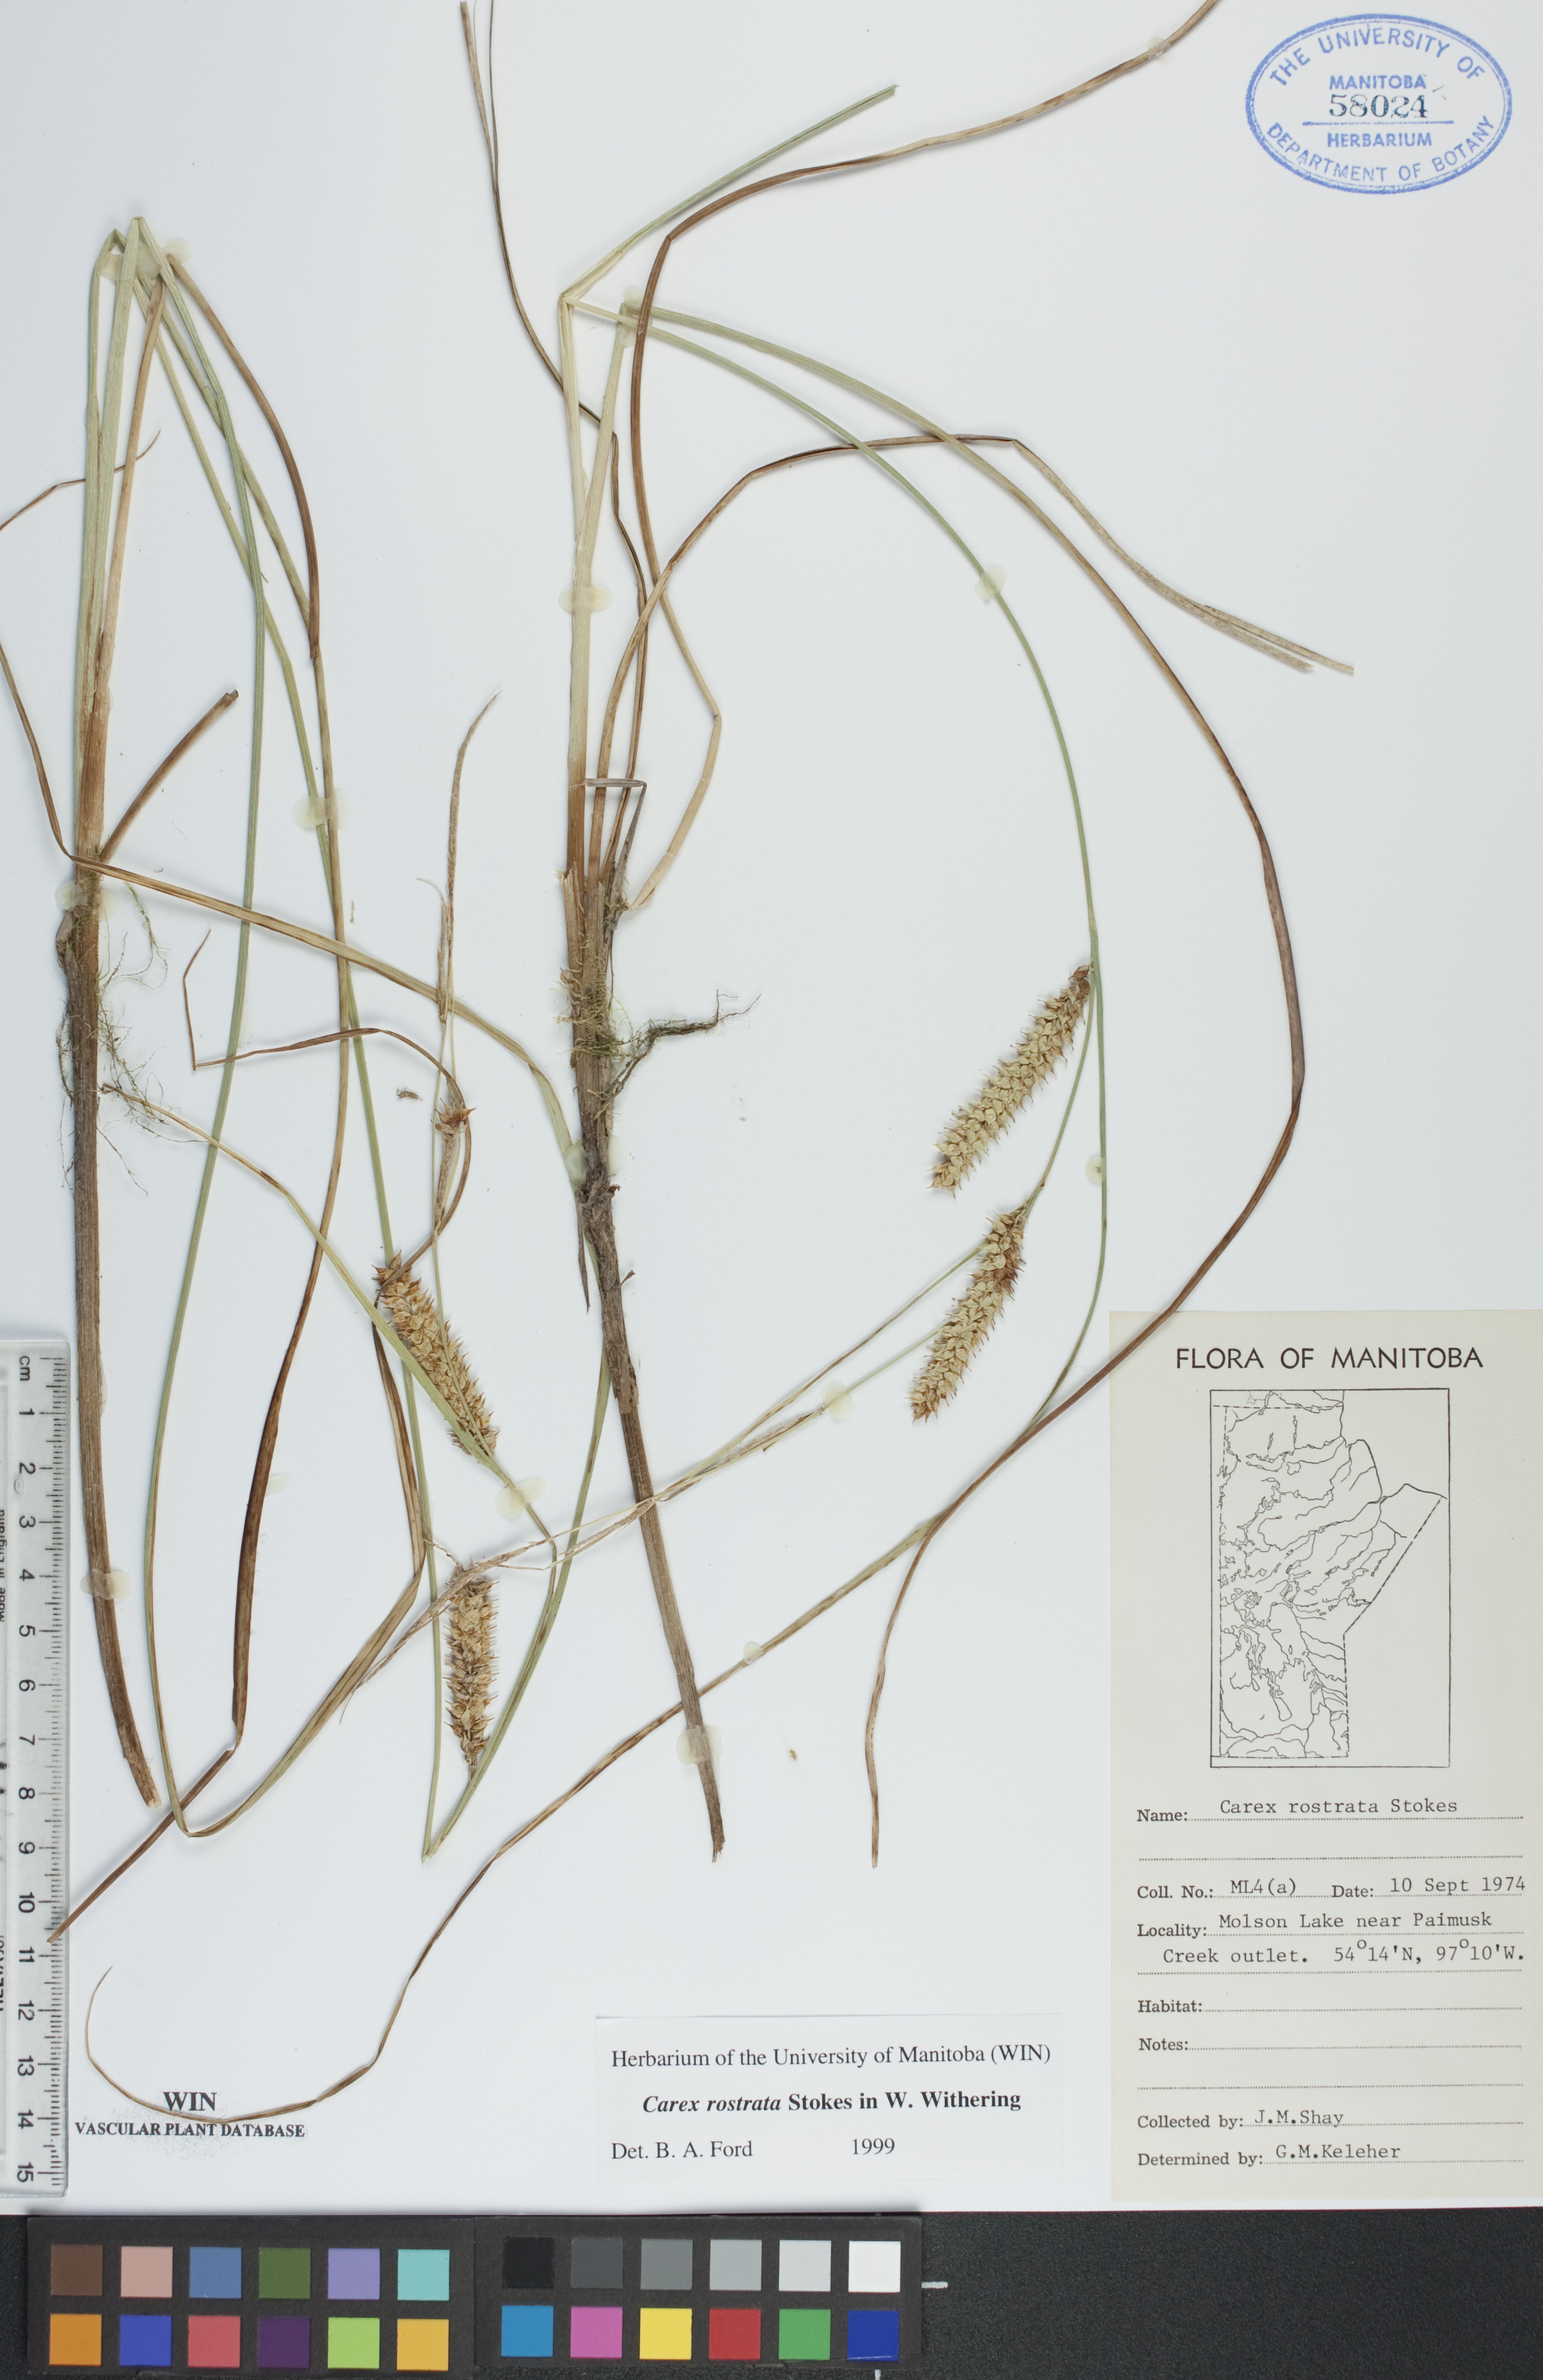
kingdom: Plantae
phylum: Tracheophyta
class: Liliopsida
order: Poales
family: Cyperaceae
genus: Carex
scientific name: Carex rostrata
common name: Bottle sedge
